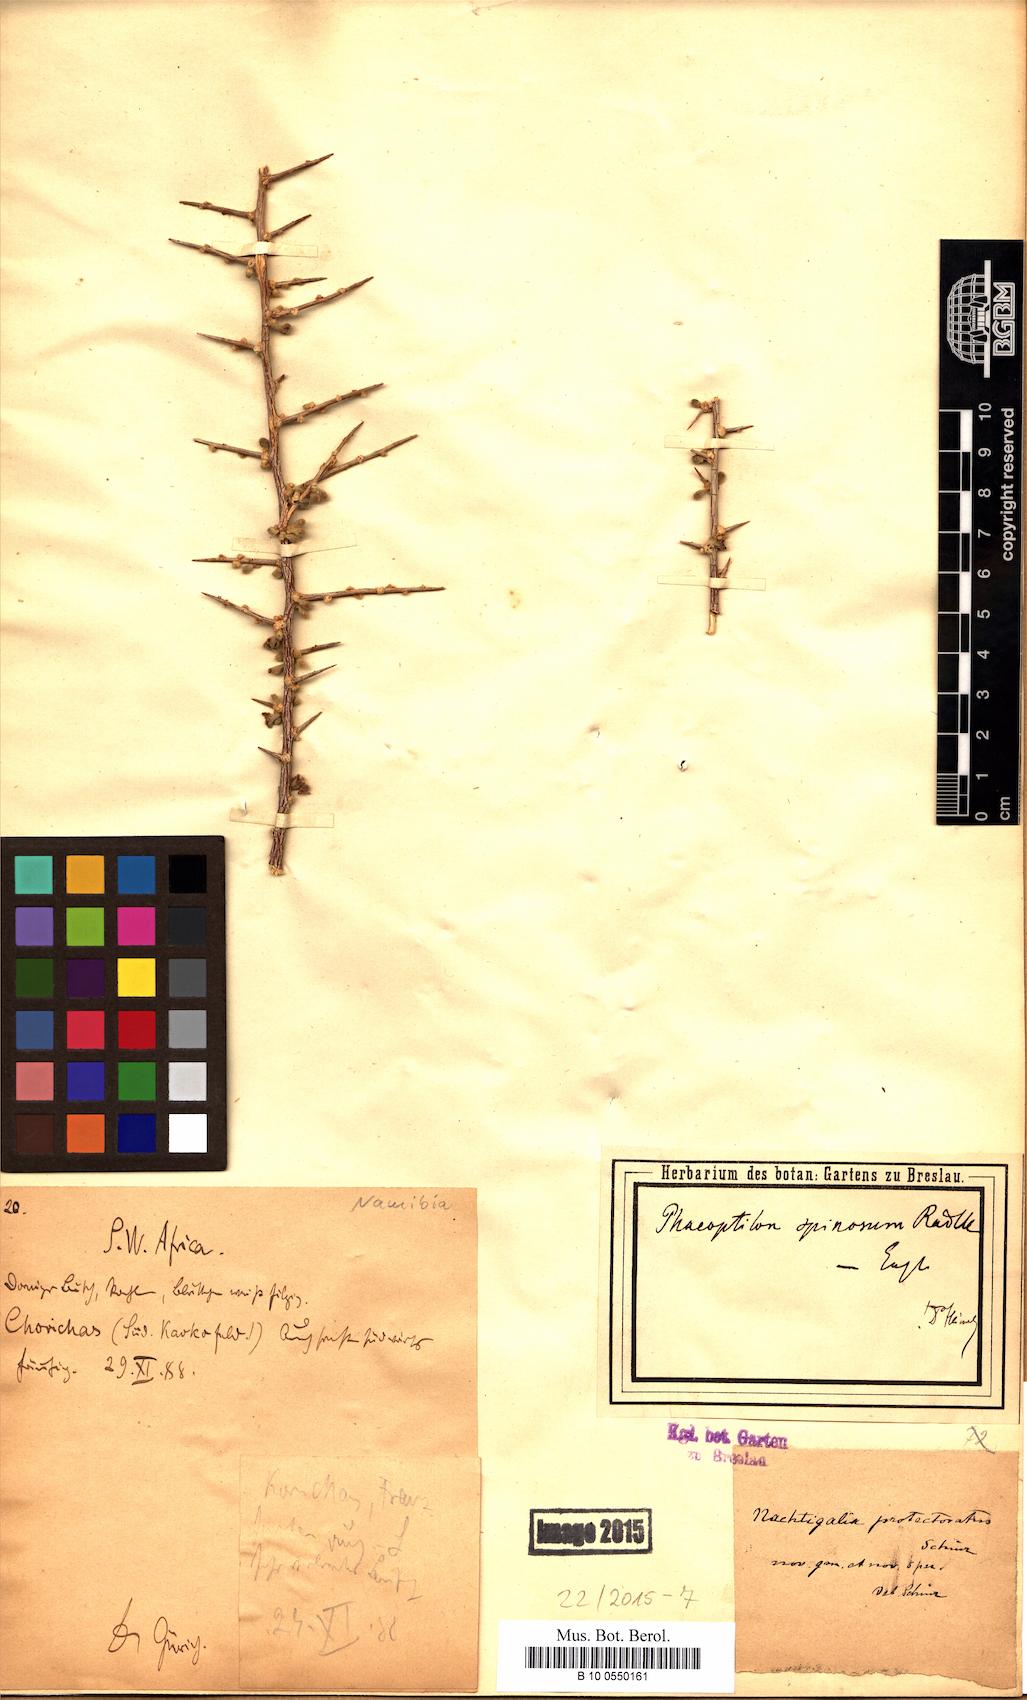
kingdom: Plantae
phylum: Tracheophyta
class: Magnoliopsida
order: Caryophyllales
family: Nyctaginaceae
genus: Phaeoptilum
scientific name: Phaeoptilum spinosum
